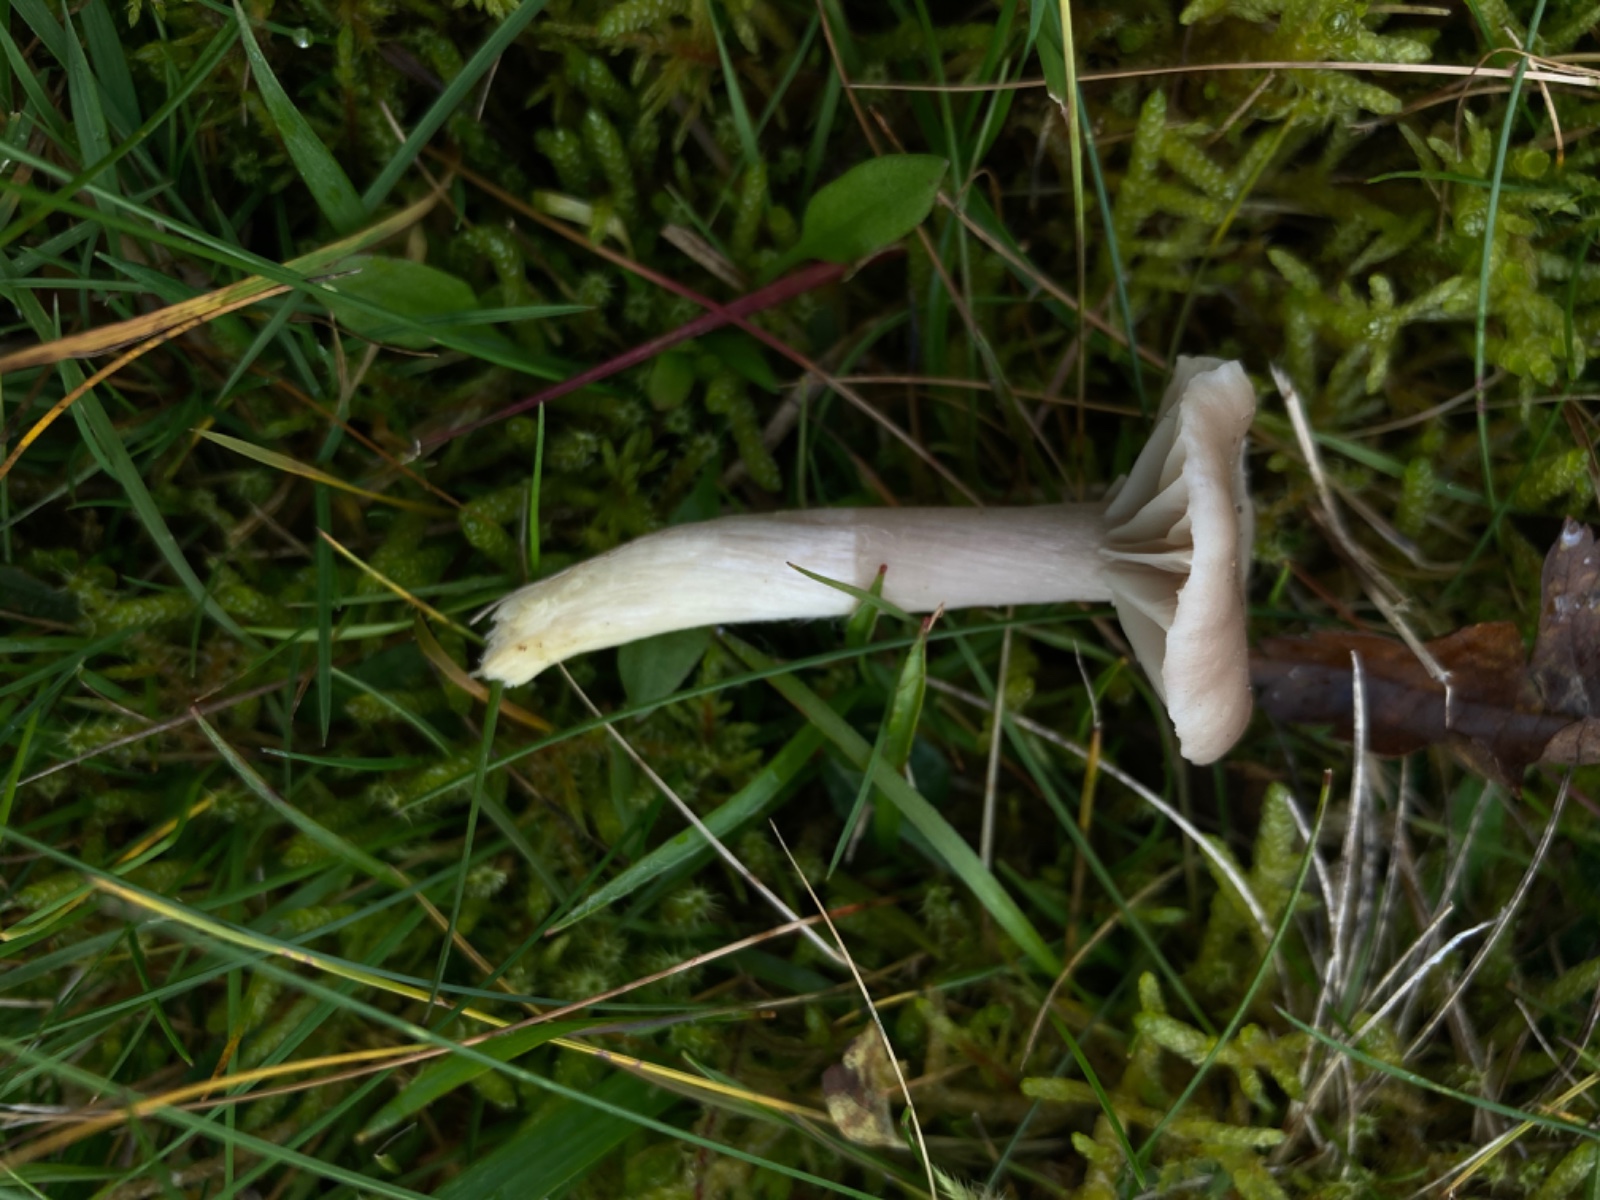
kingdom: Fungi
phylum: Basidiomycota
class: Agaricomycetes
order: Agaricales
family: Hygrophoraceae
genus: Cuphophyllus
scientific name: Cuphophyllus flavipes
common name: gulfodet vokshat
